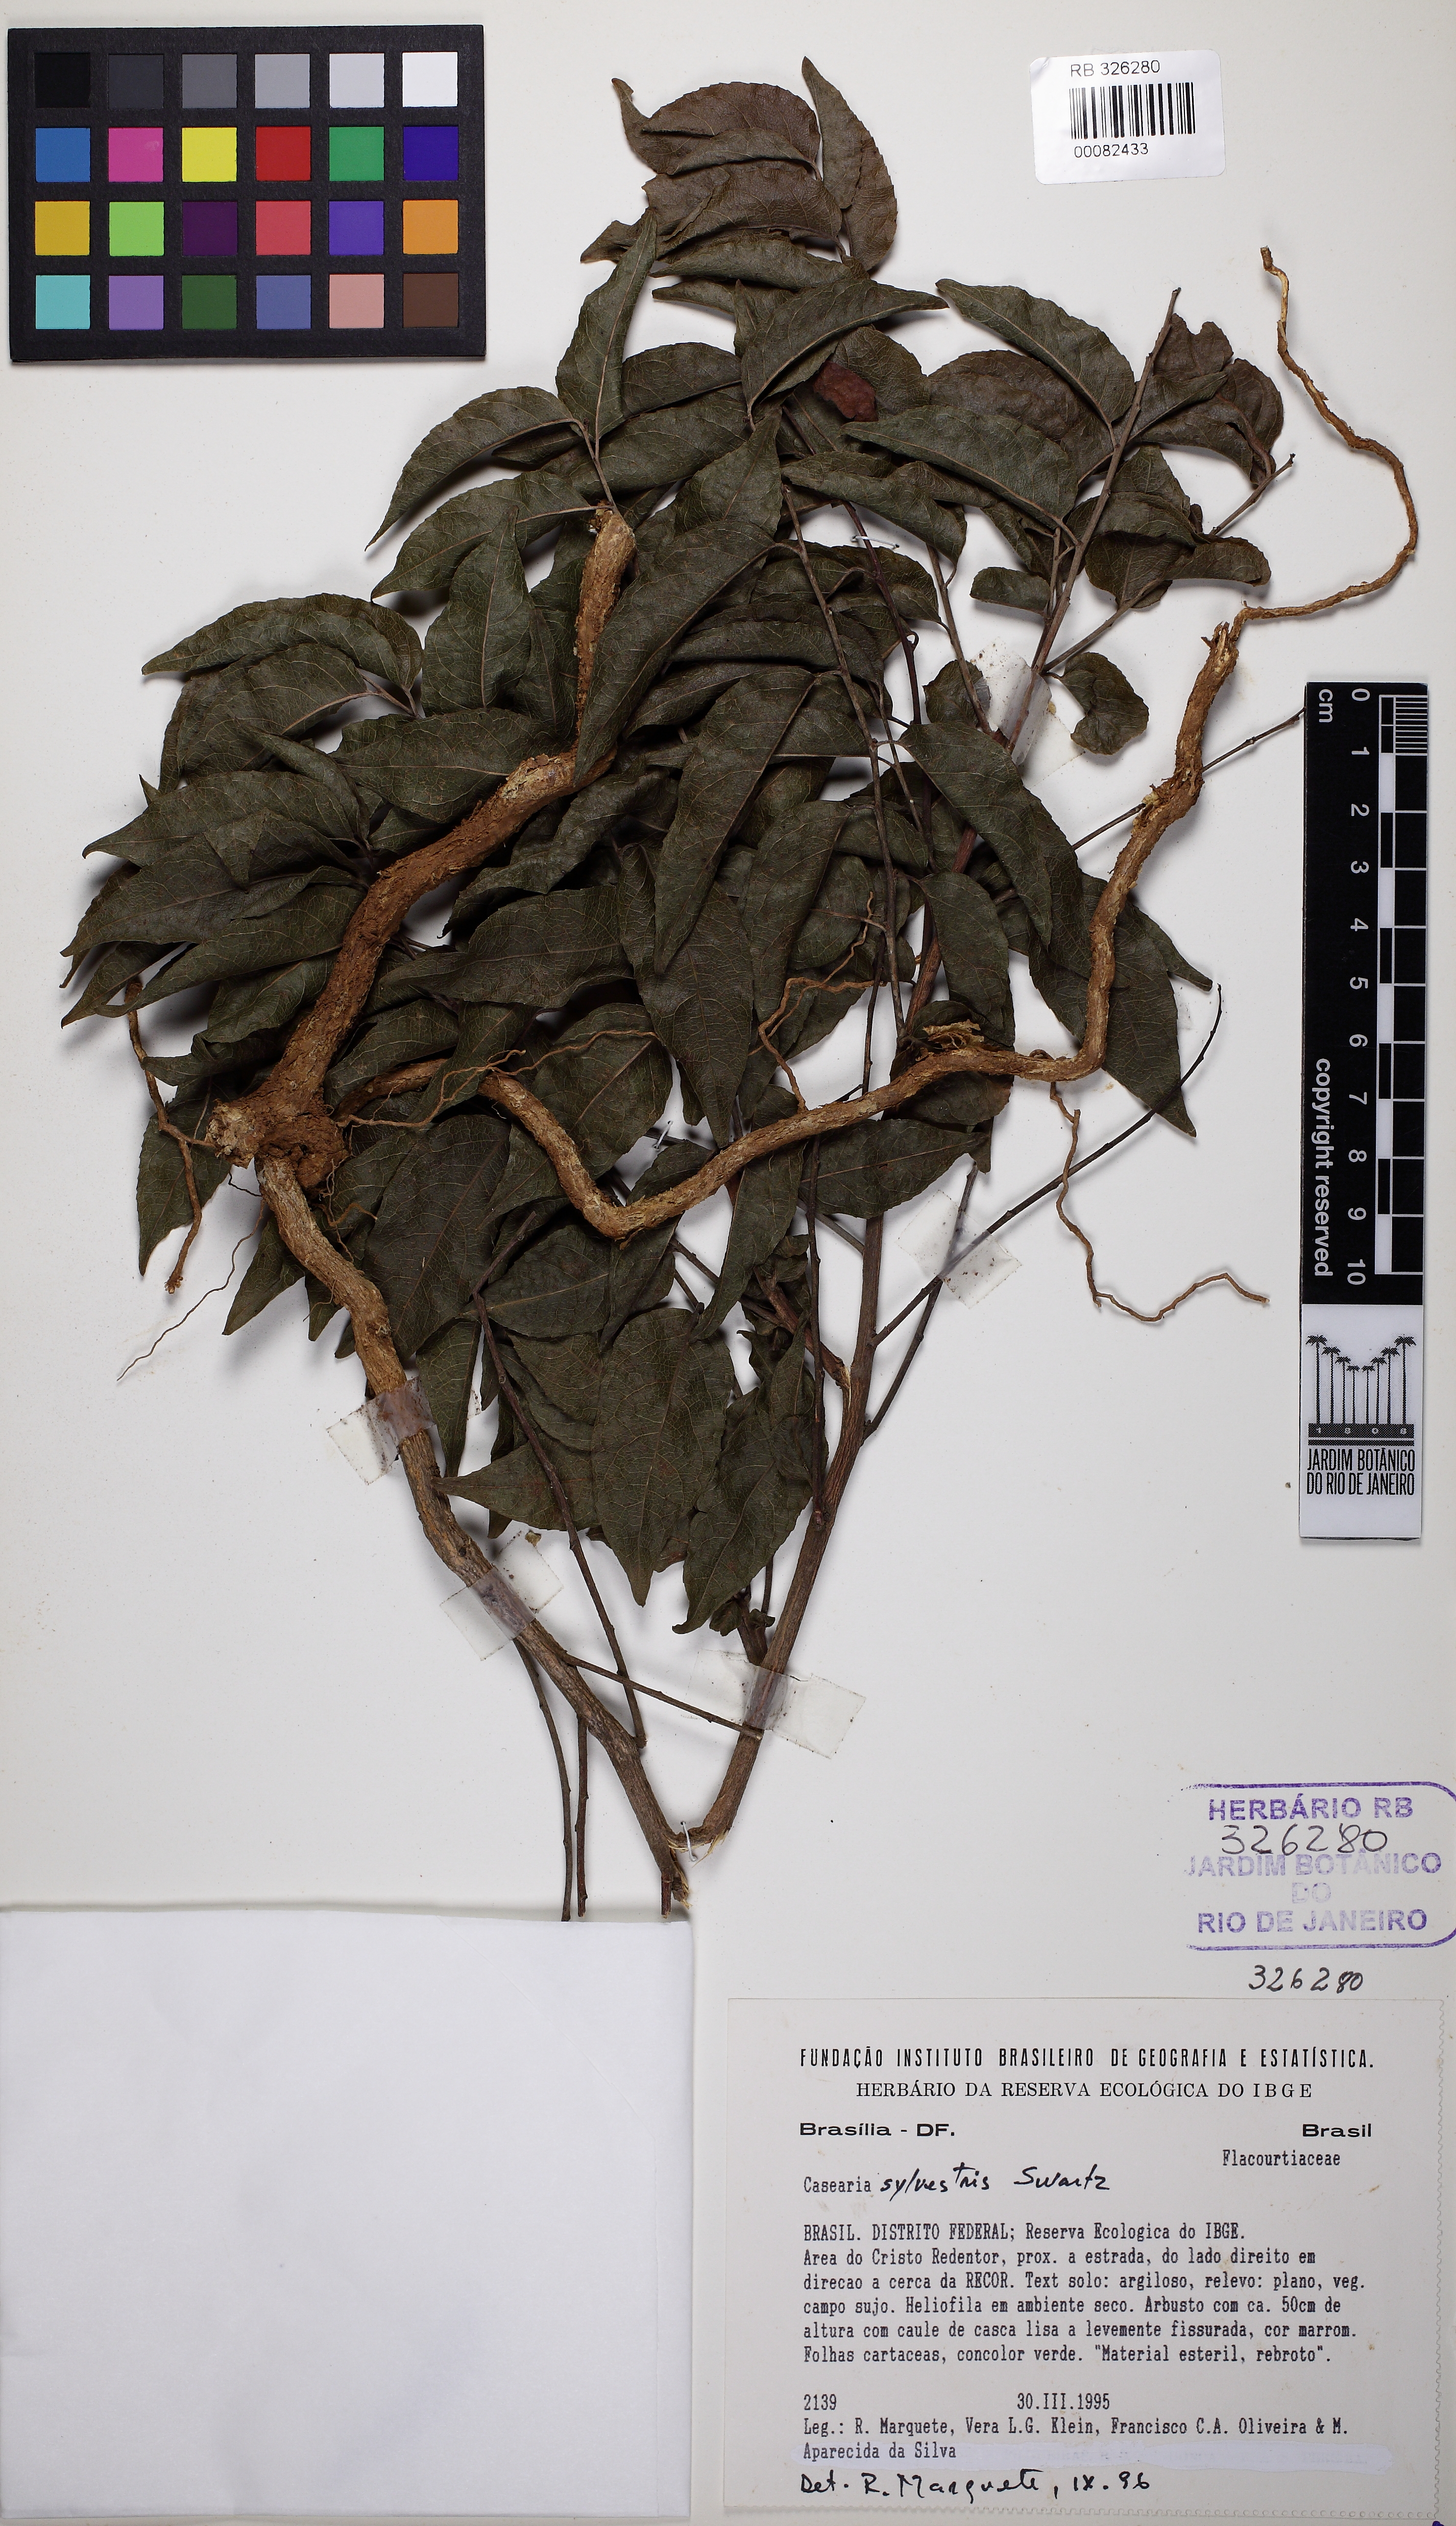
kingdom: Plantae
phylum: Tracheophyta
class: Magnoliopsida
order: Malpighiales
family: Salicaceae
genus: Casearia
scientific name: Casearia sylvestris
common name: Wild sage
